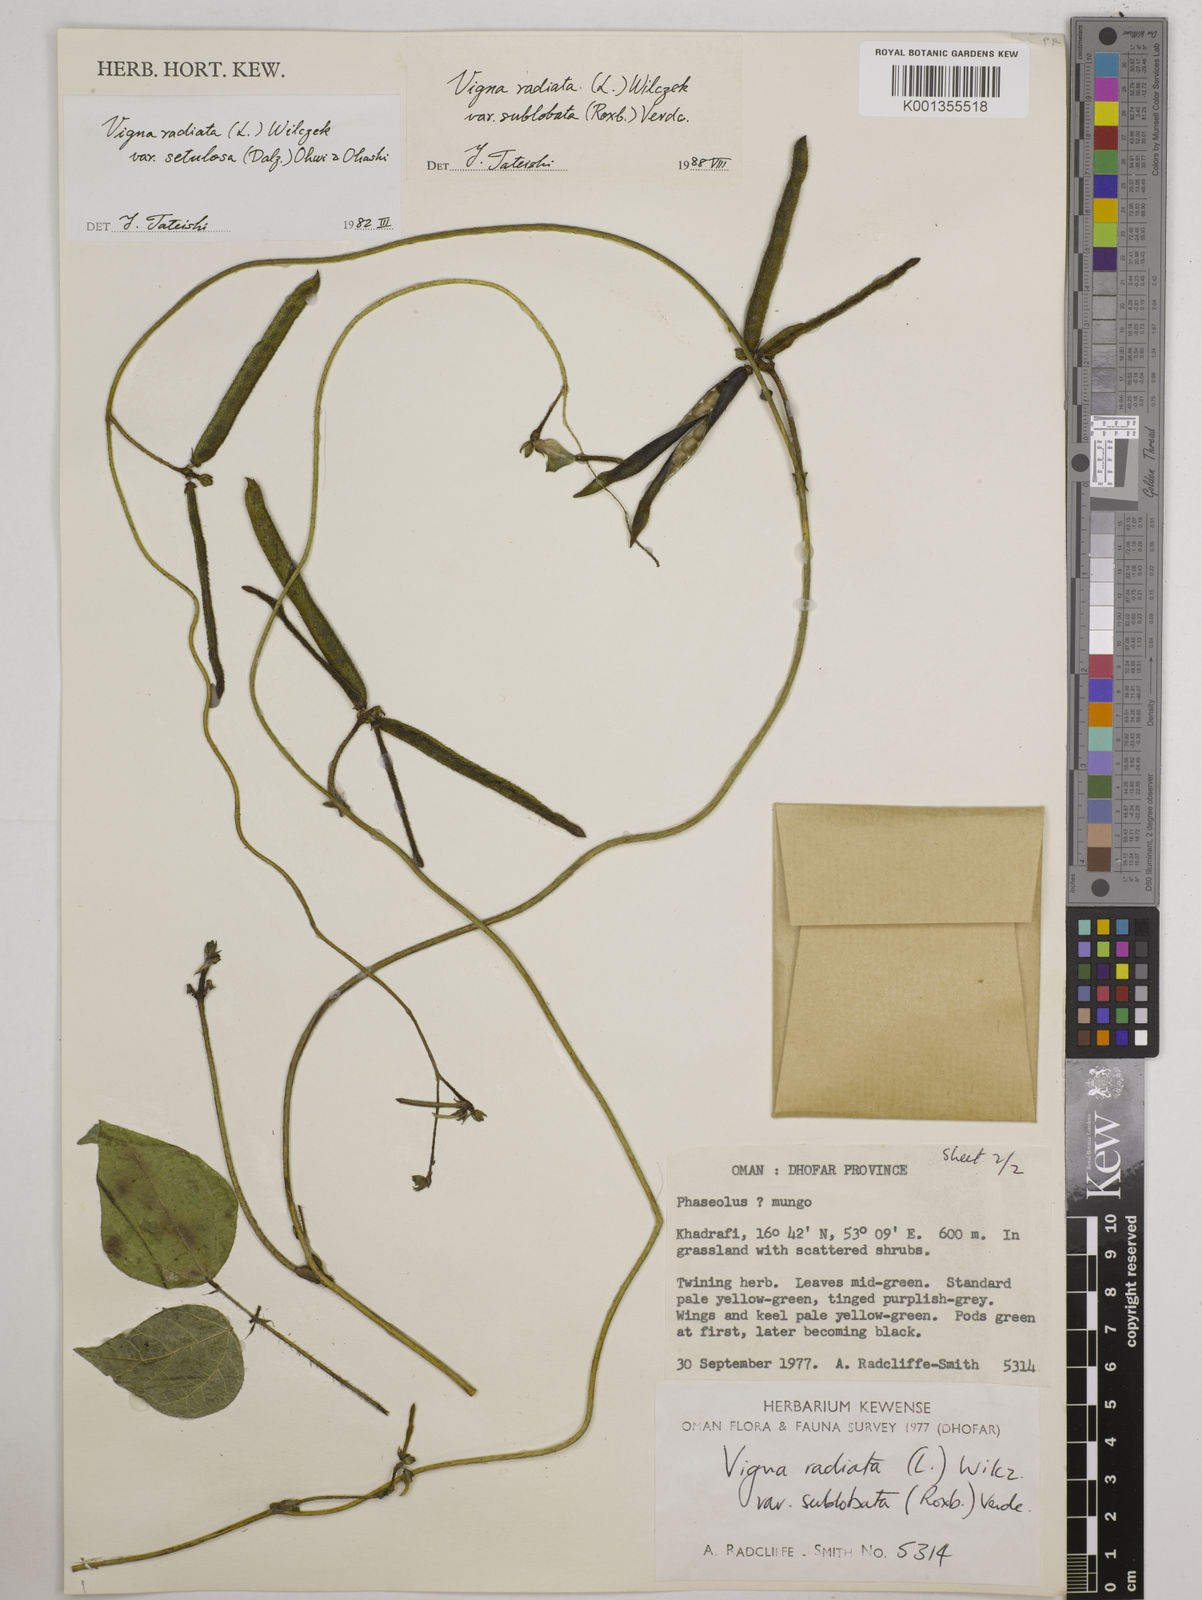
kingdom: Plantae
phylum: Tracheophyta
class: Magnoliopsida
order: Fabales
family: Fabaceae
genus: Vigna
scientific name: Vigna radiata
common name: Mung-bean
